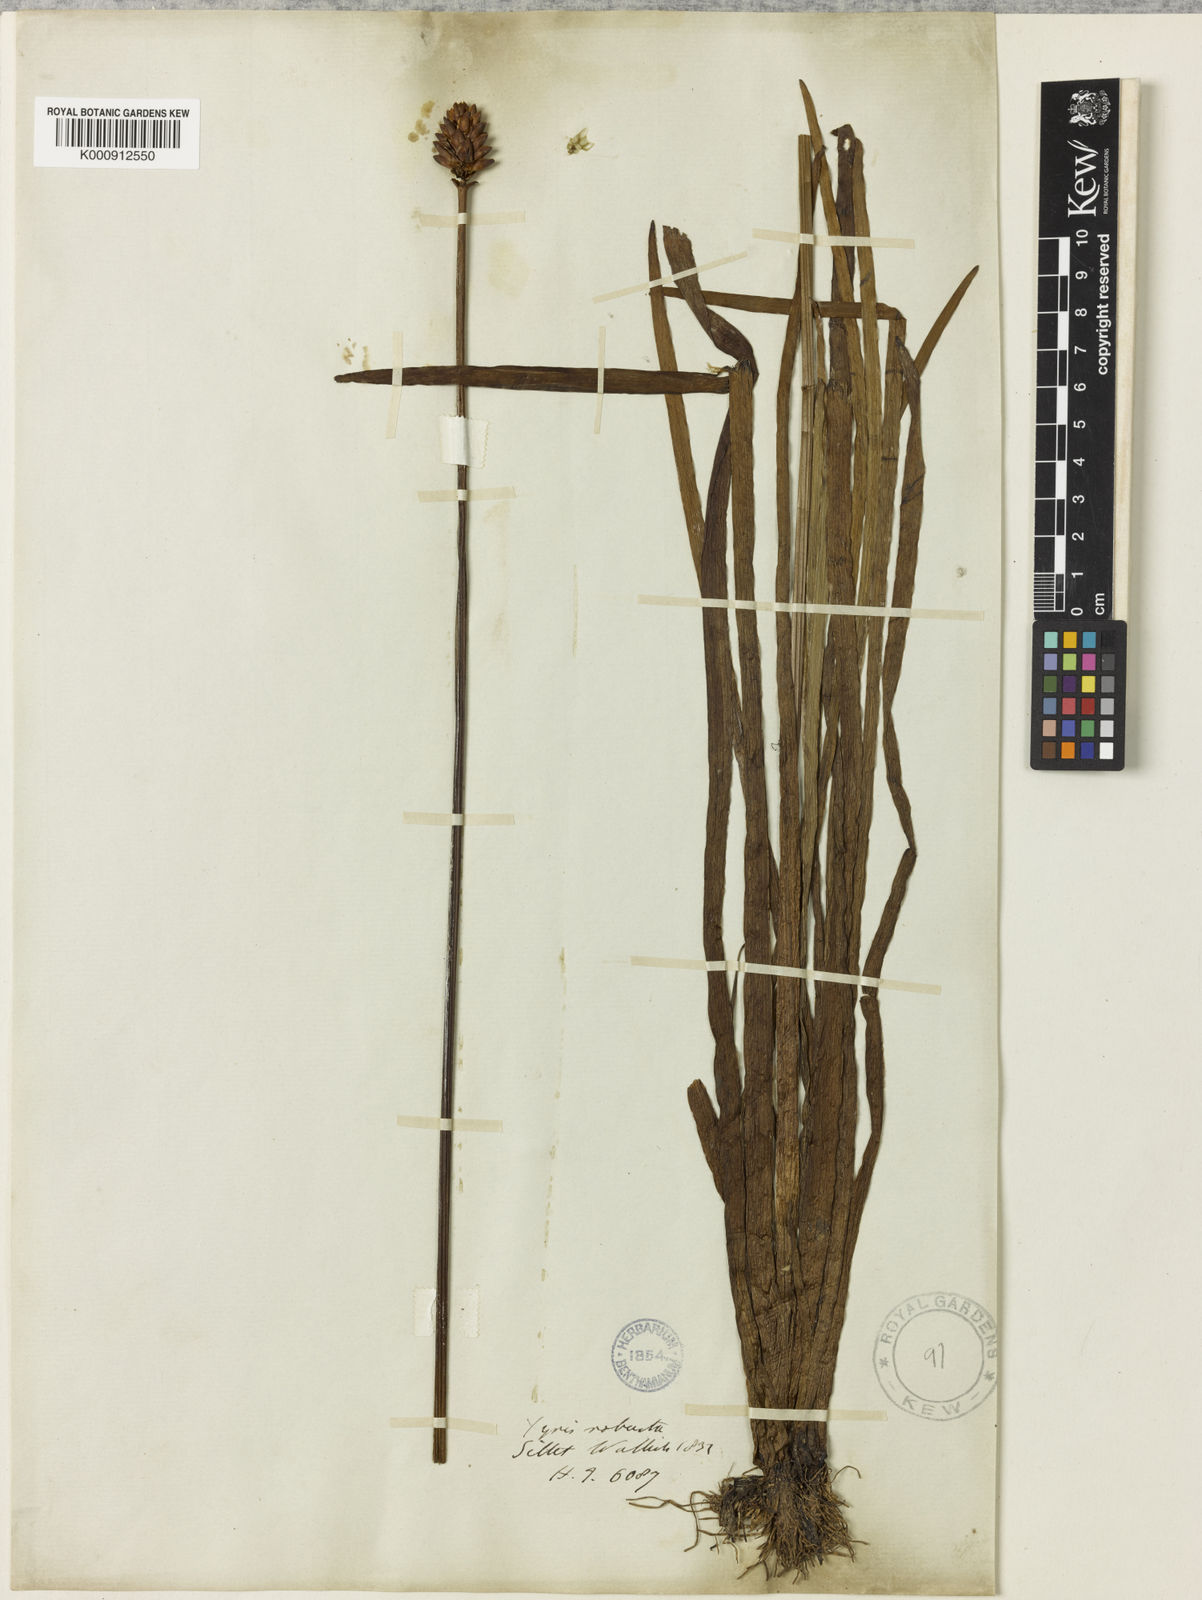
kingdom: Plantae
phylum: Tracheophyta
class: Liliopsida
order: Poales
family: Xyridaceae
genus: Xyris
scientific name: Xyris indica
